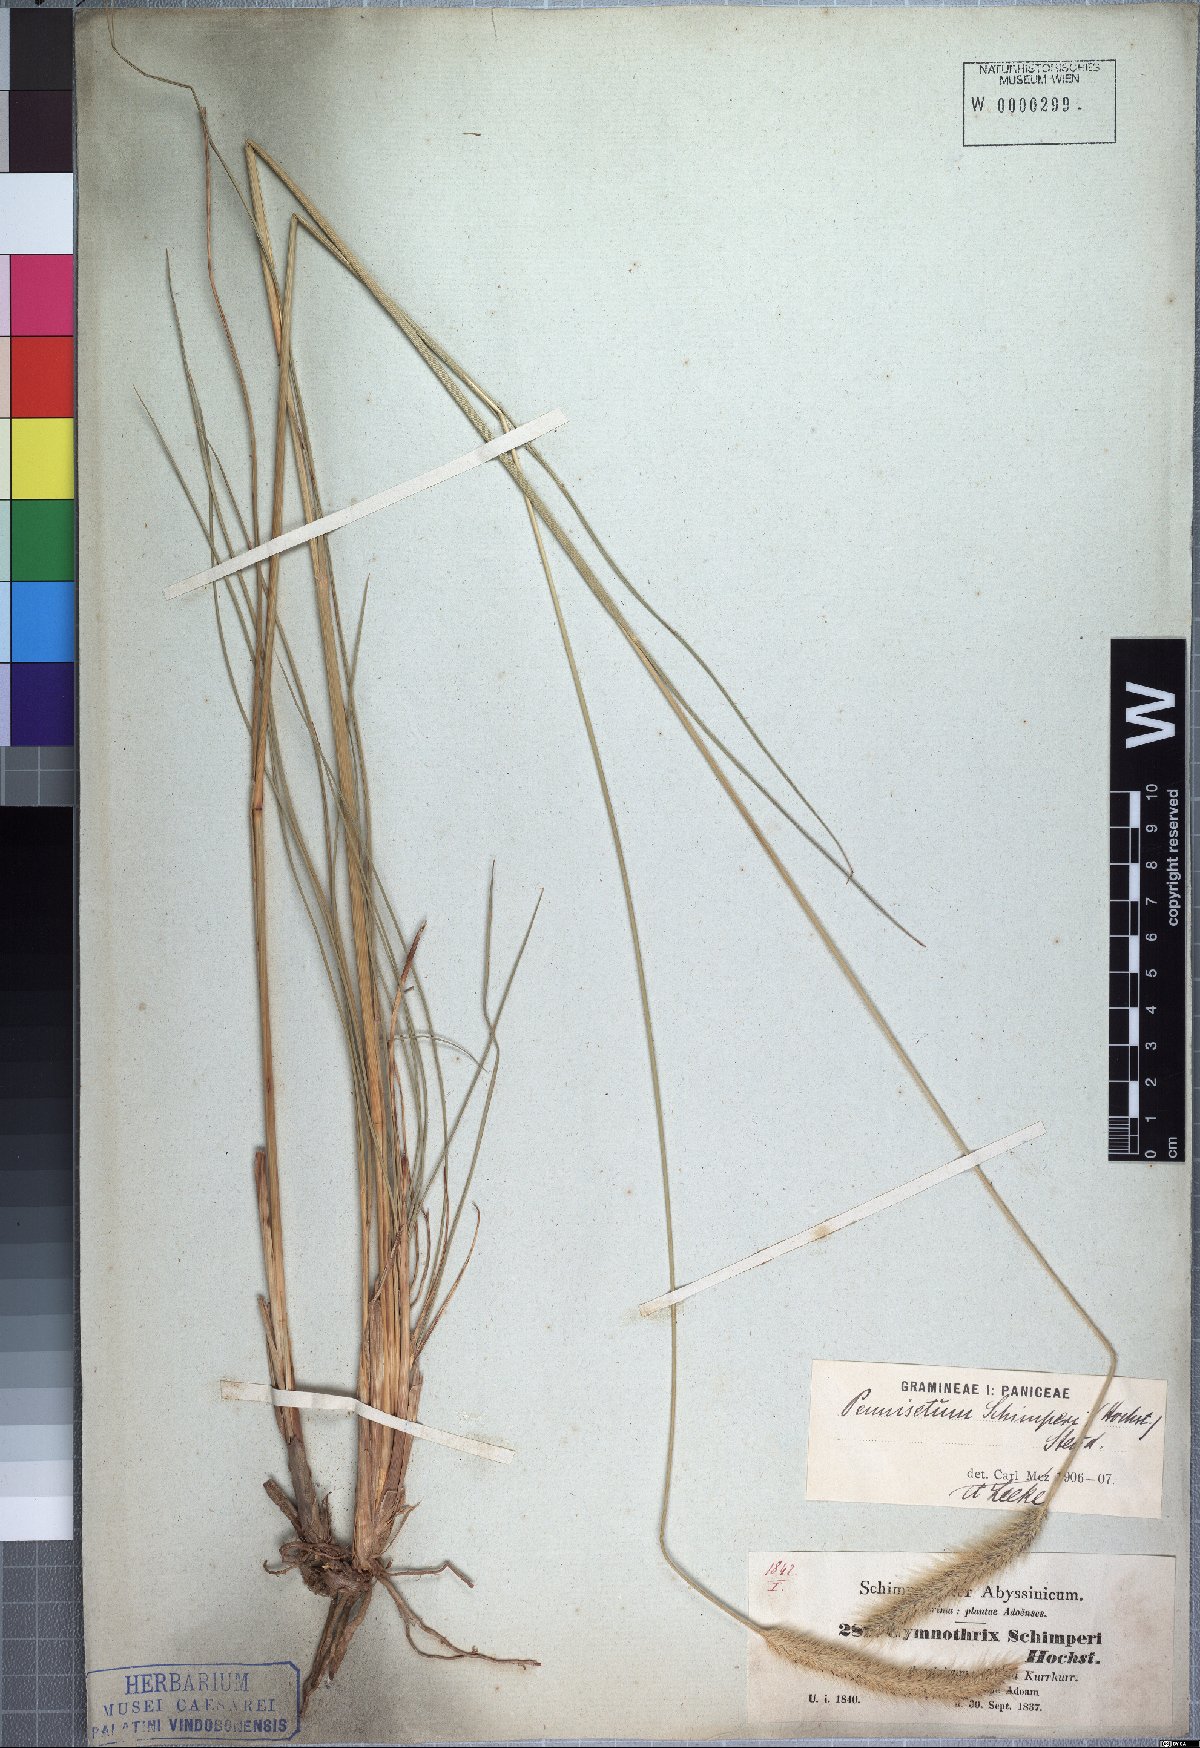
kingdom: Plantae
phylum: Tracheophyta
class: Liliopsida
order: Poales
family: Poaceae
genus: Cenchrus
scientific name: Cenchrus sphacelatus
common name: Bulgras
